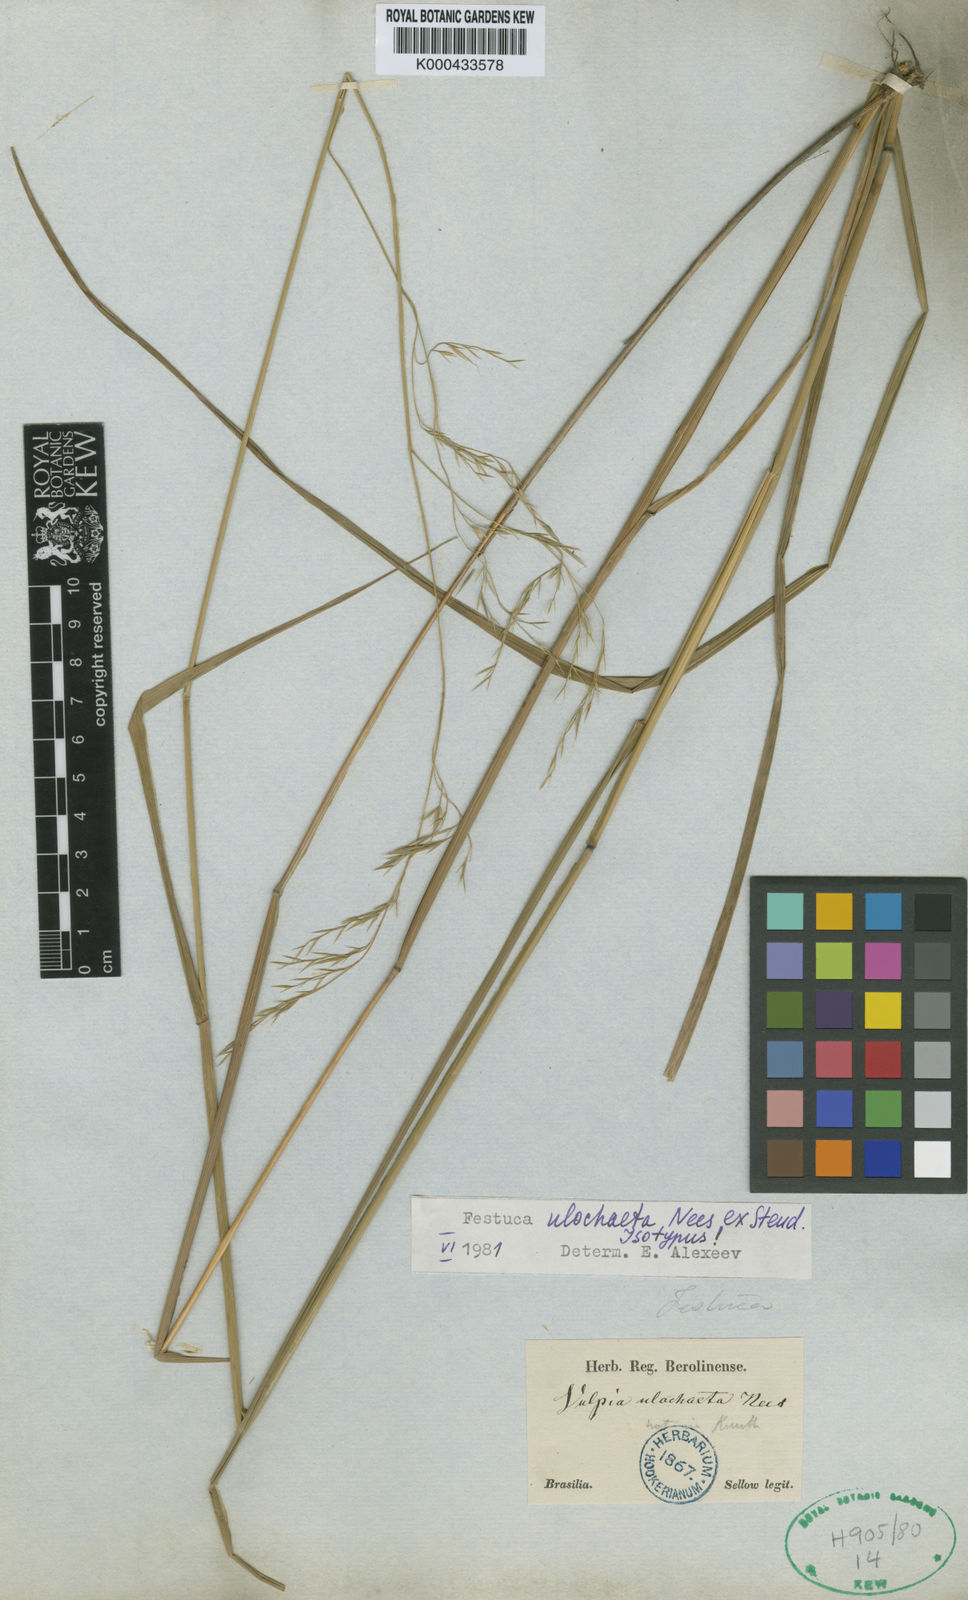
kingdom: Plantae
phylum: Tracheophyta
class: Liliopsida
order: Poales
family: Poaceae
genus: Festuca
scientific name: Festuca ulochaeta
